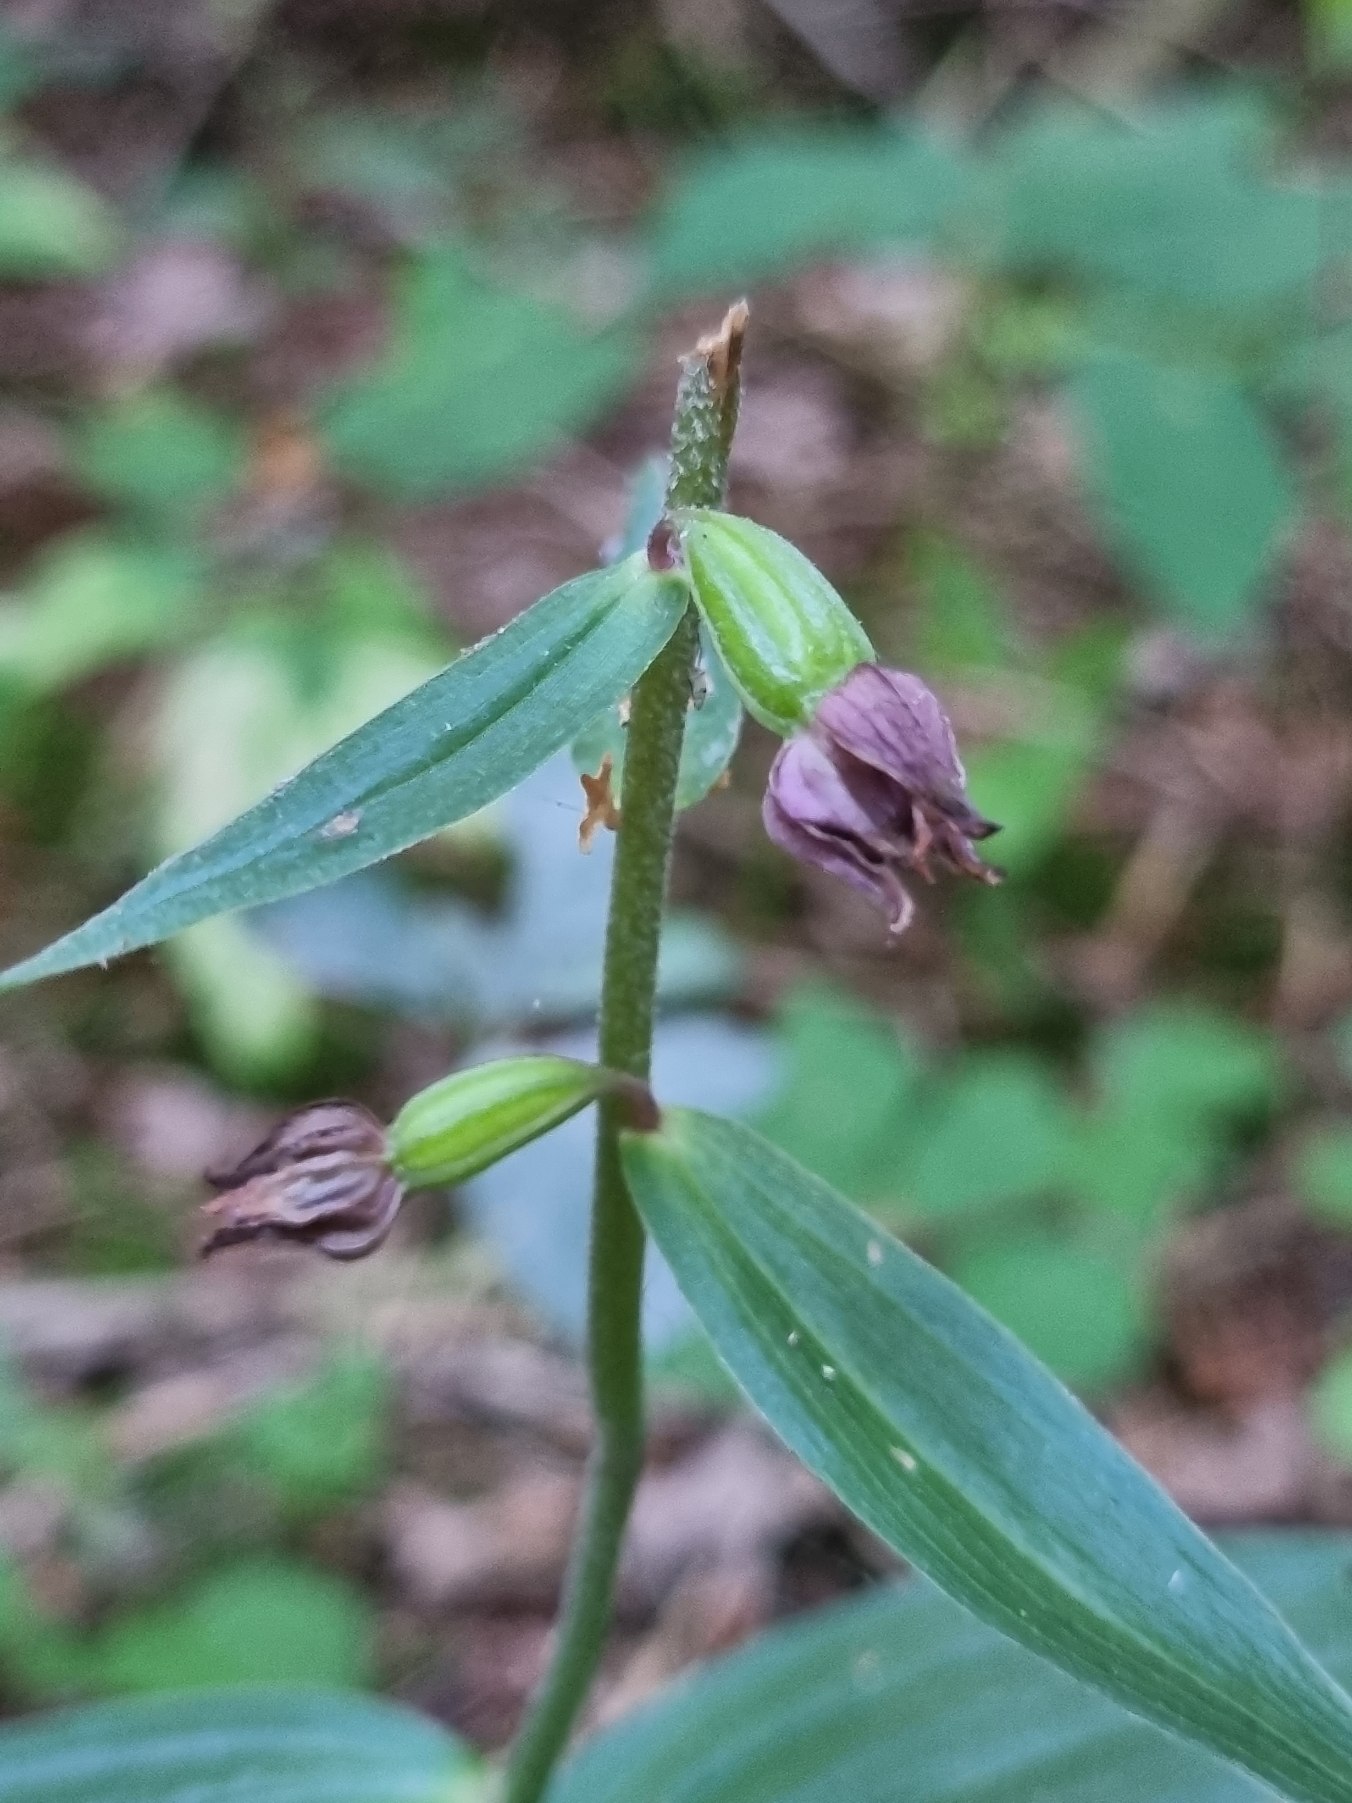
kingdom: Plantae
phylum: Tracheophyta
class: Liliopsida
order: Asparagales
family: Orchidaceae
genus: Epipactis
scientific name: Epipactis helleborine
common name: Skov-hullæbe
